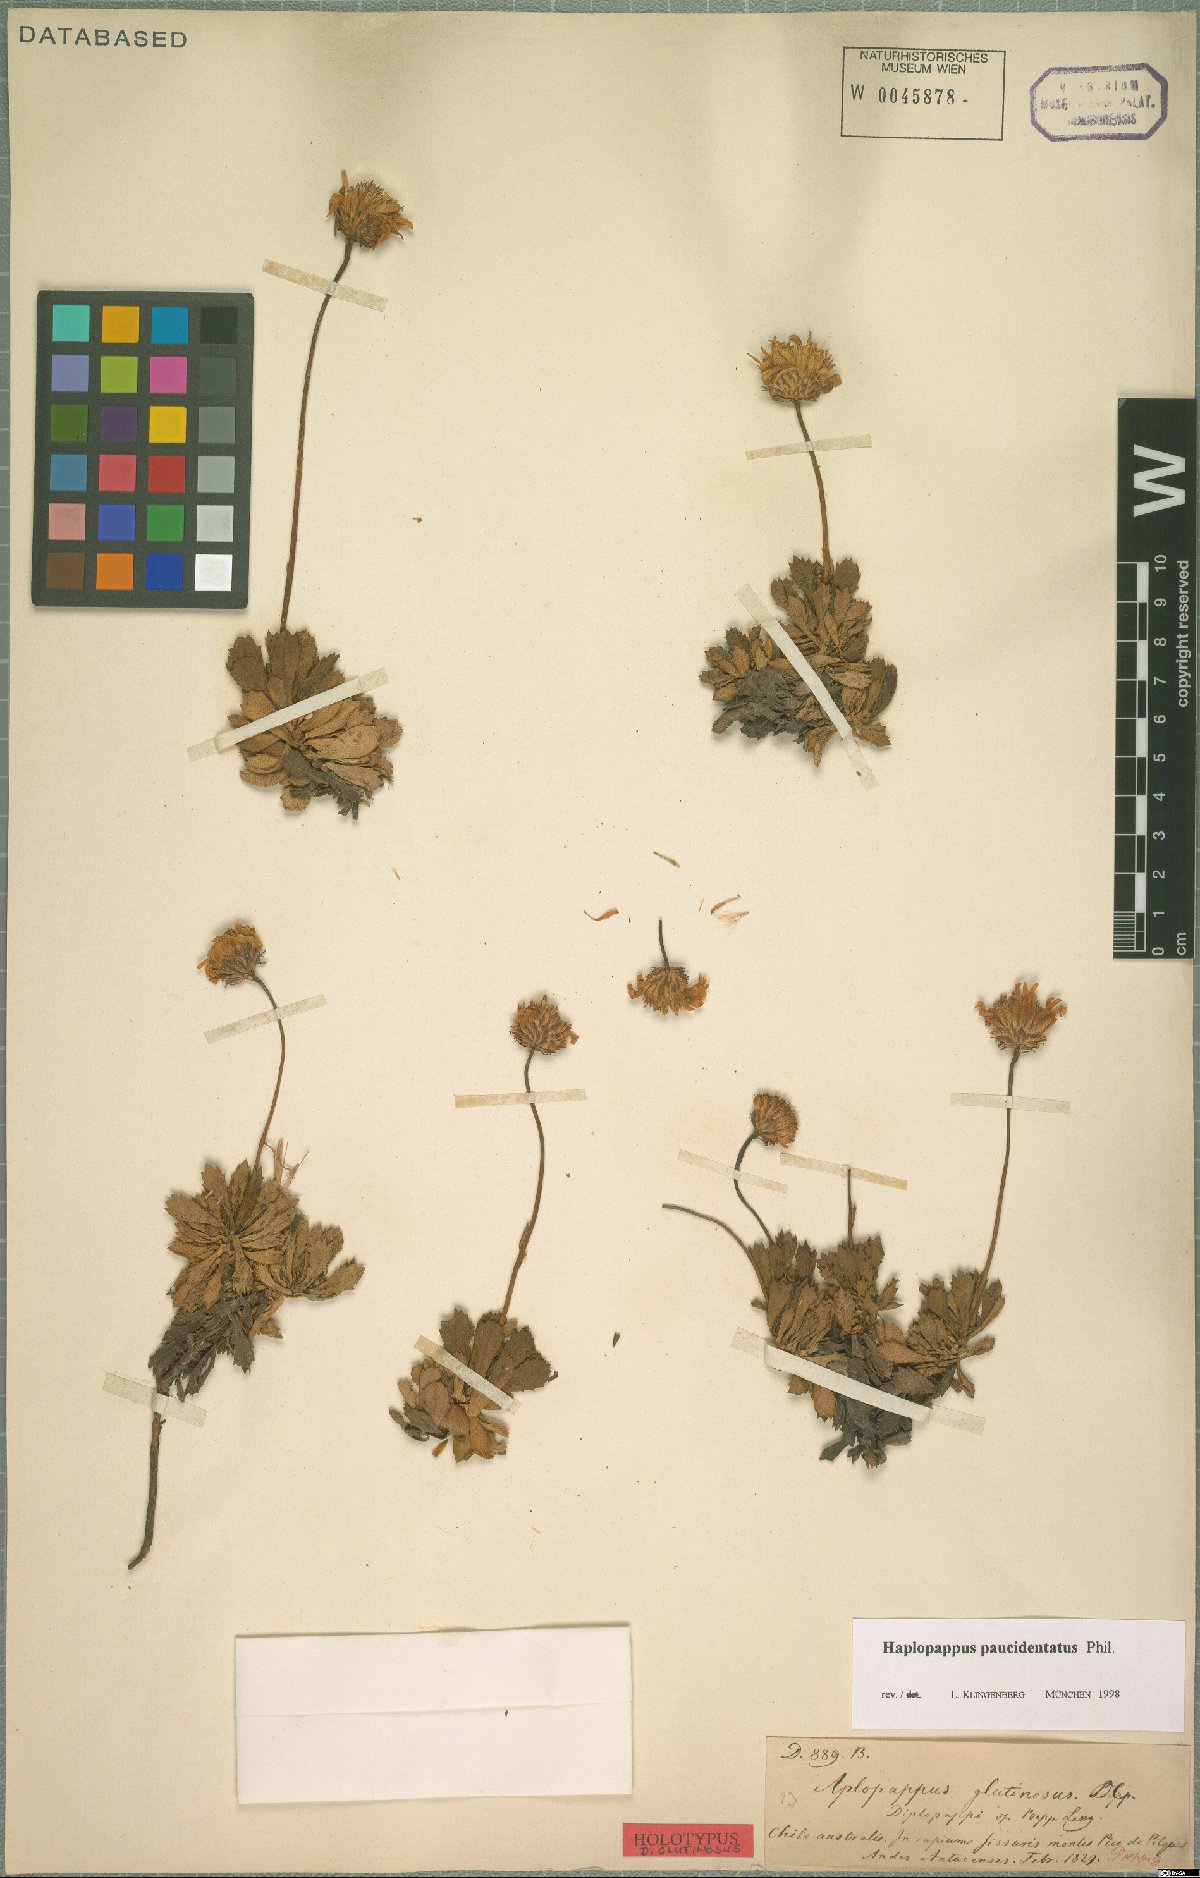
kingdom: Plantae
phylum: Tracheophyta
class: Magnoliopsida
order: Asterales
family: Asteraceae
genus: Haplopappus
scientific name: Haplopappus glutinosus
